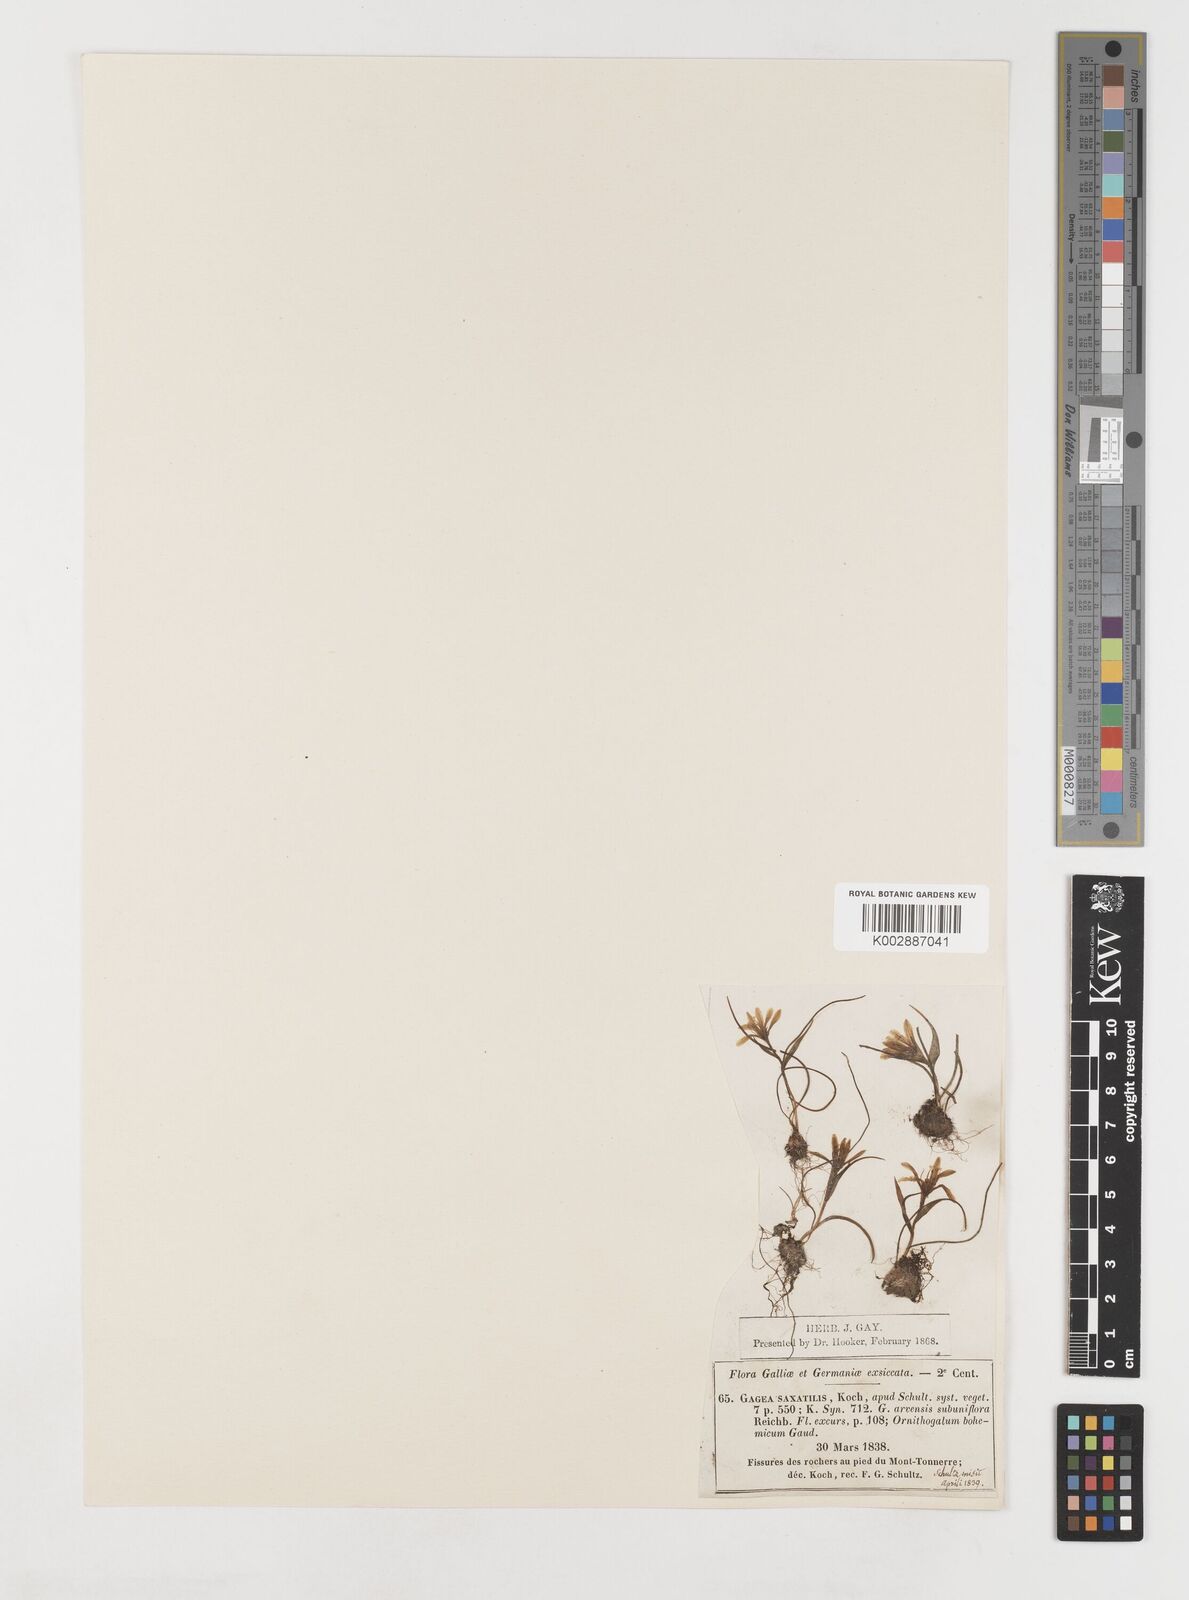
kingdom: Plantae
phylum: Tracheophyta
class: Liliopsida
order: Liliales
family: Liliaceae
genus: Gagea
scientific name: Gagea bohemica
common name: Early star-of-bethlehem
